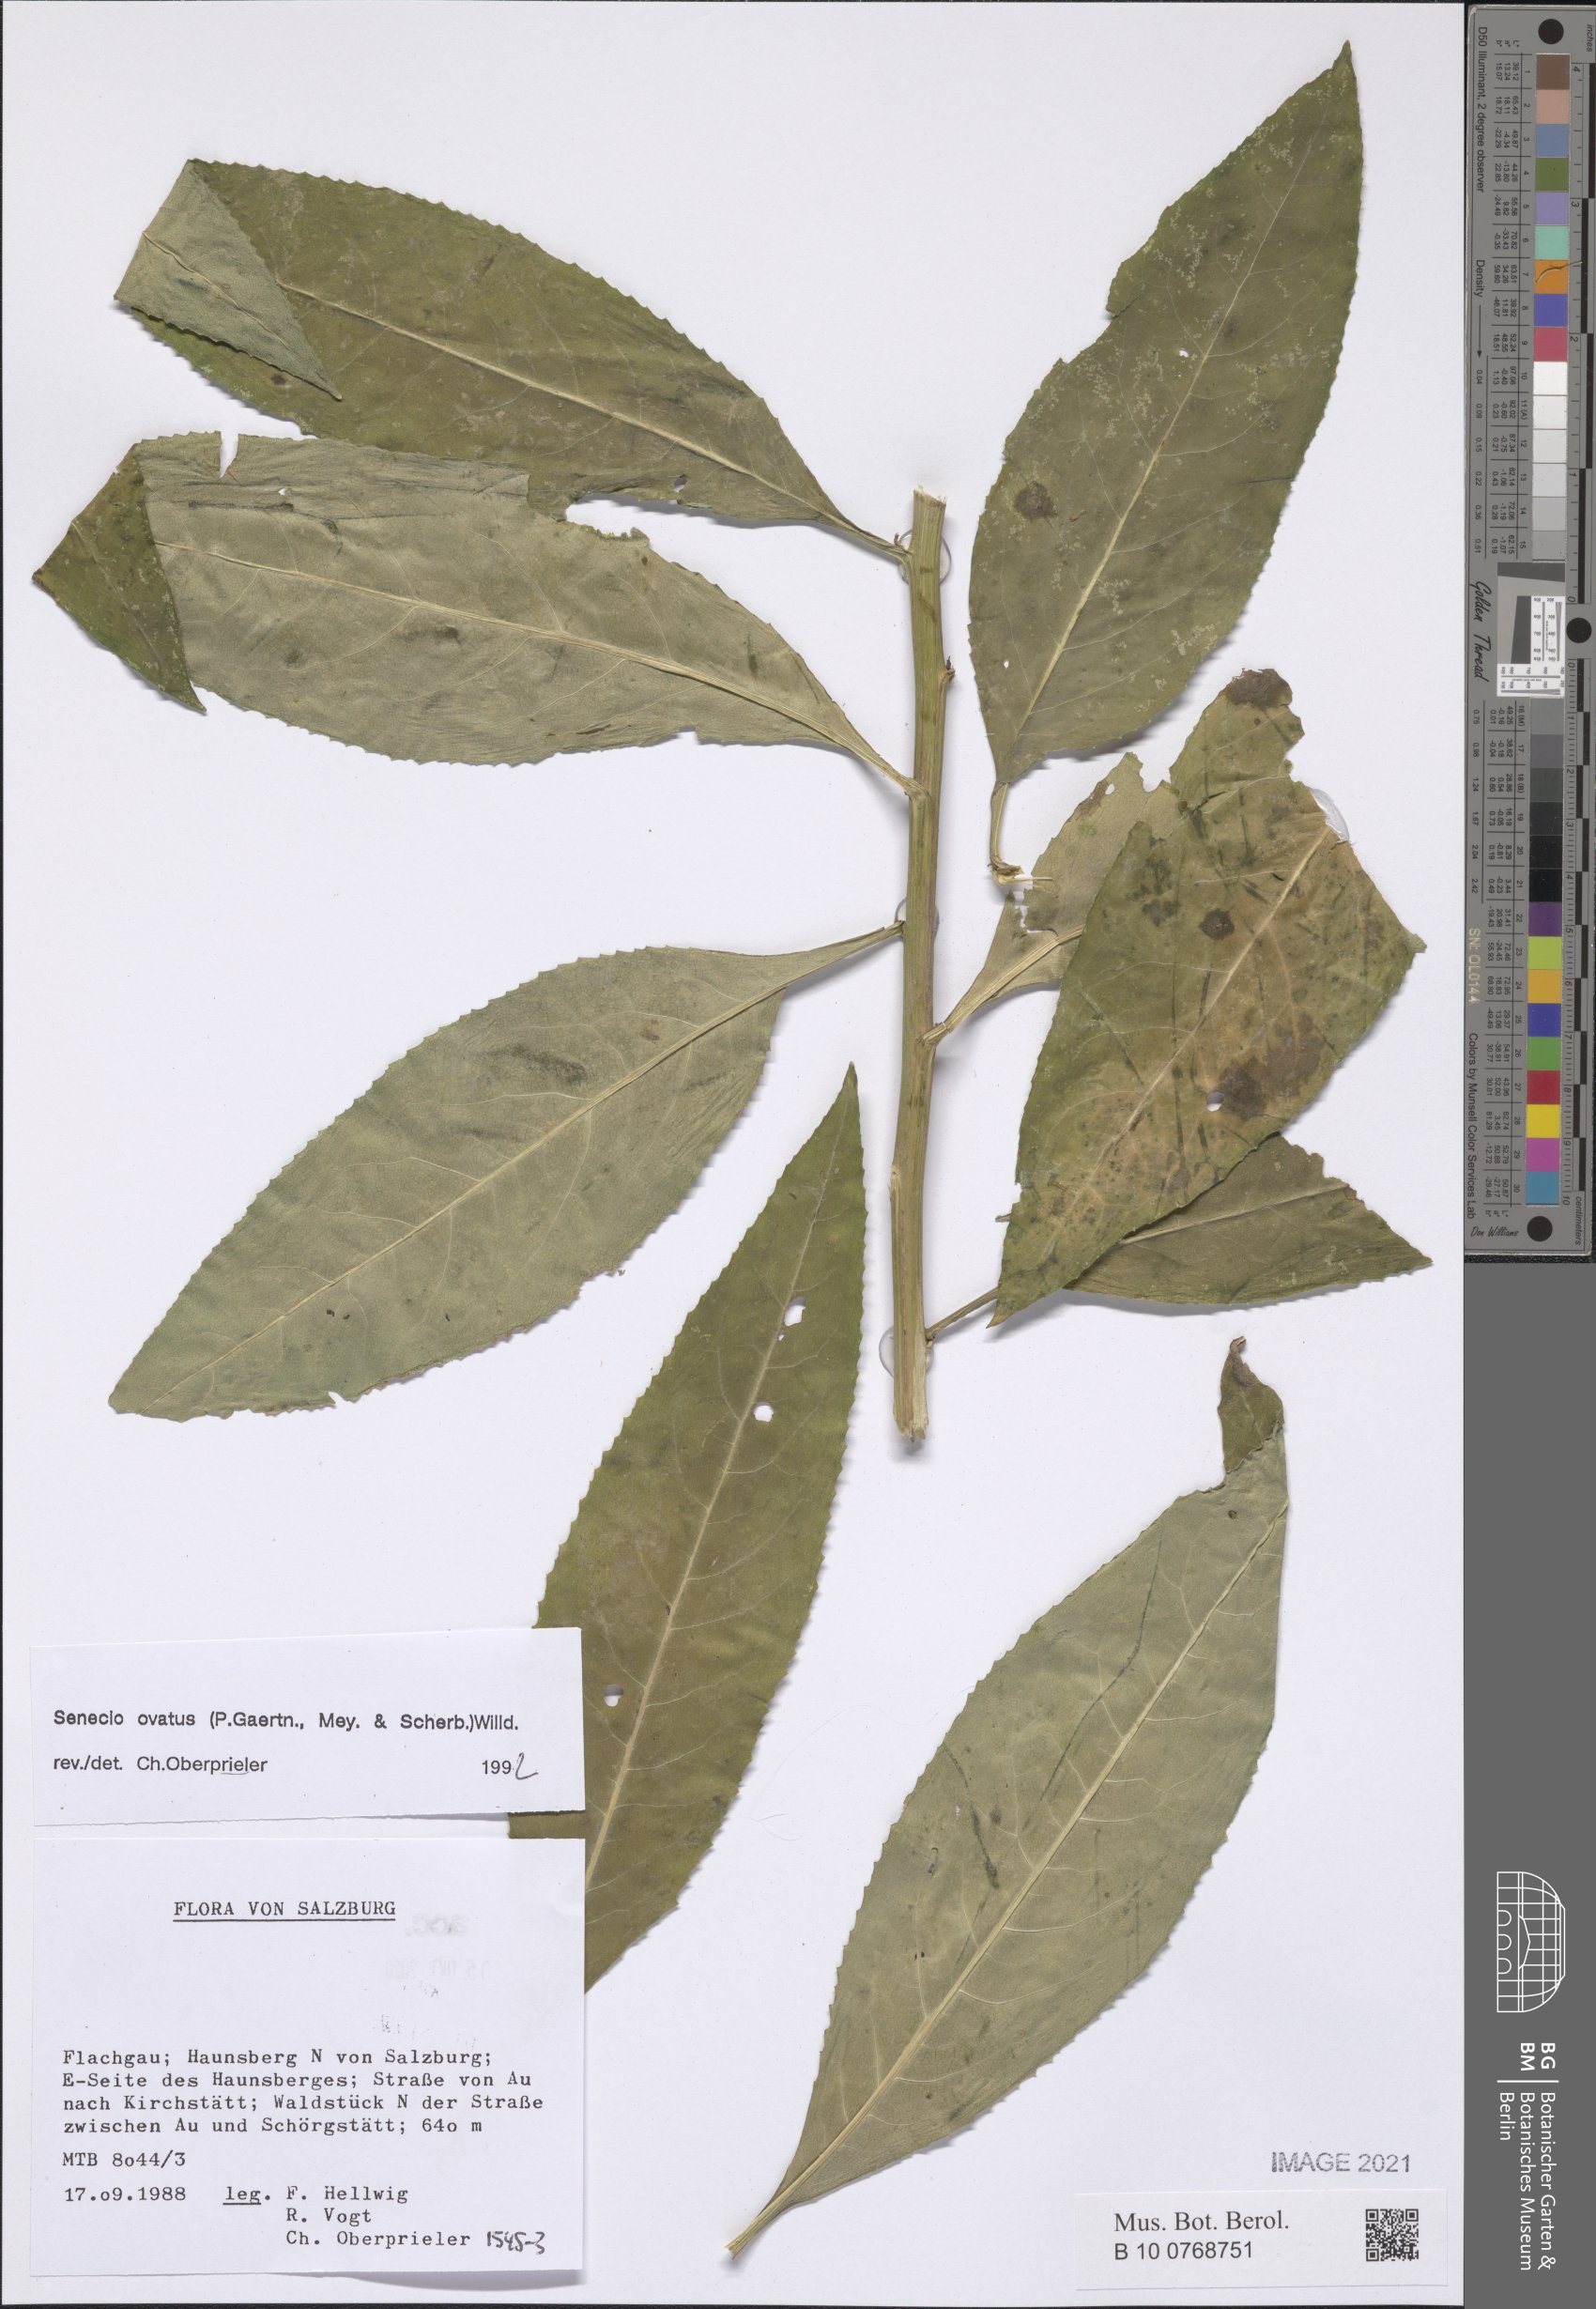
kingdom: Plantae
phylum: Tracheophyta
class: Magnoliopsida
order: Asterales
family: Asteraceae
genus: Senecio
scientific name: Senecio ovatus
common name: Wood ragwort
